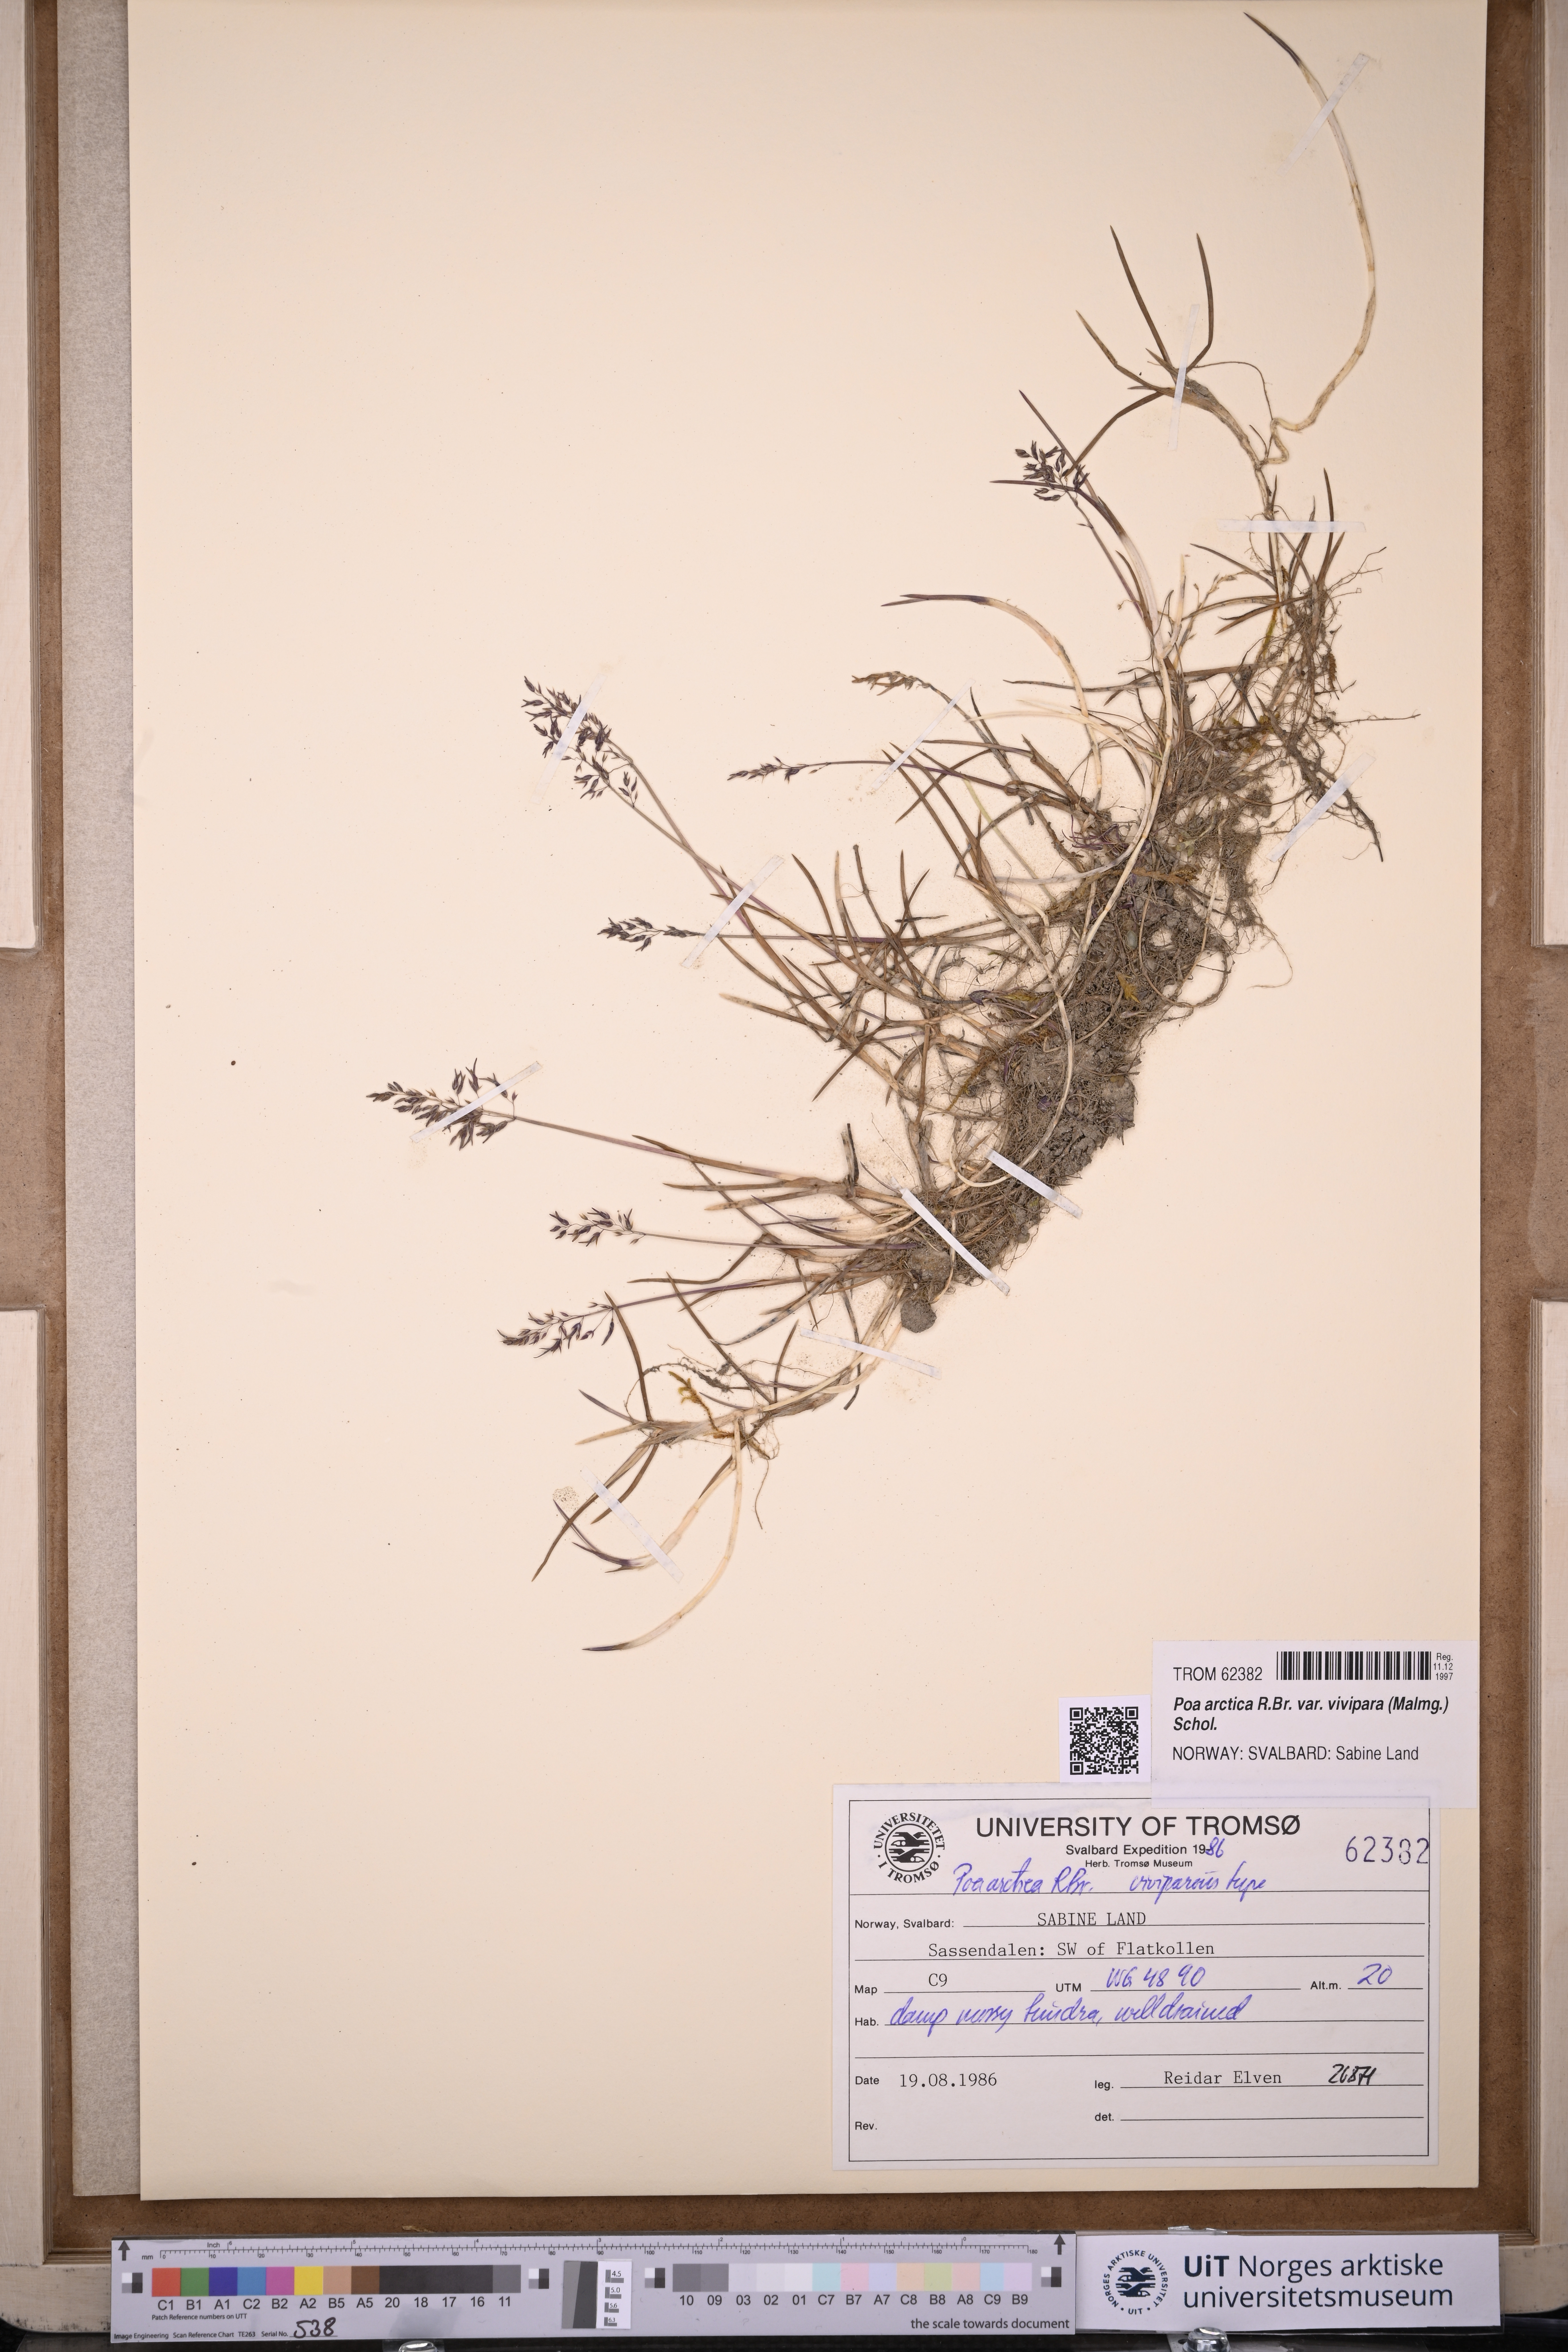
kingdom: Plantae
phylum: Tracheophyta
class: Liliopsida
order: Poales
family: Poaceae
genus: Poa
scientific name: Poa arctica
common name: Arctic bluegrass
